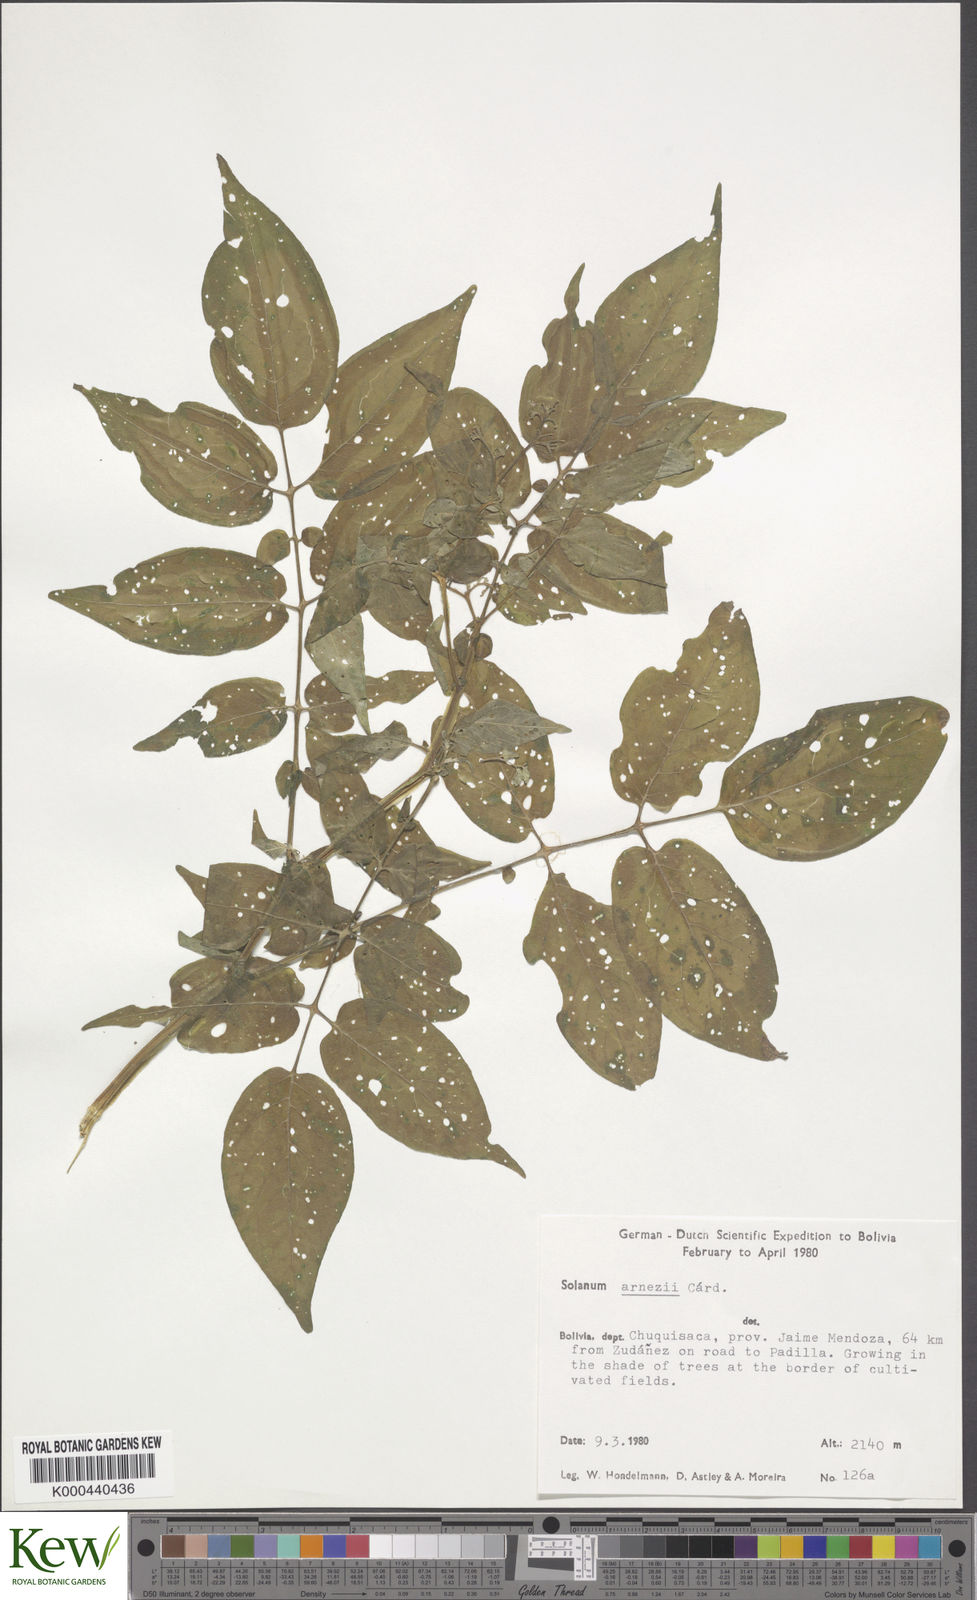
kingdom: Plantae
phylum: Tracheophyta
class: Magnoliopsida
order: Solanales
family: Solanaceae
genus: Solanum
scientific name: Solanum chacoense
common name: Chaco potato
